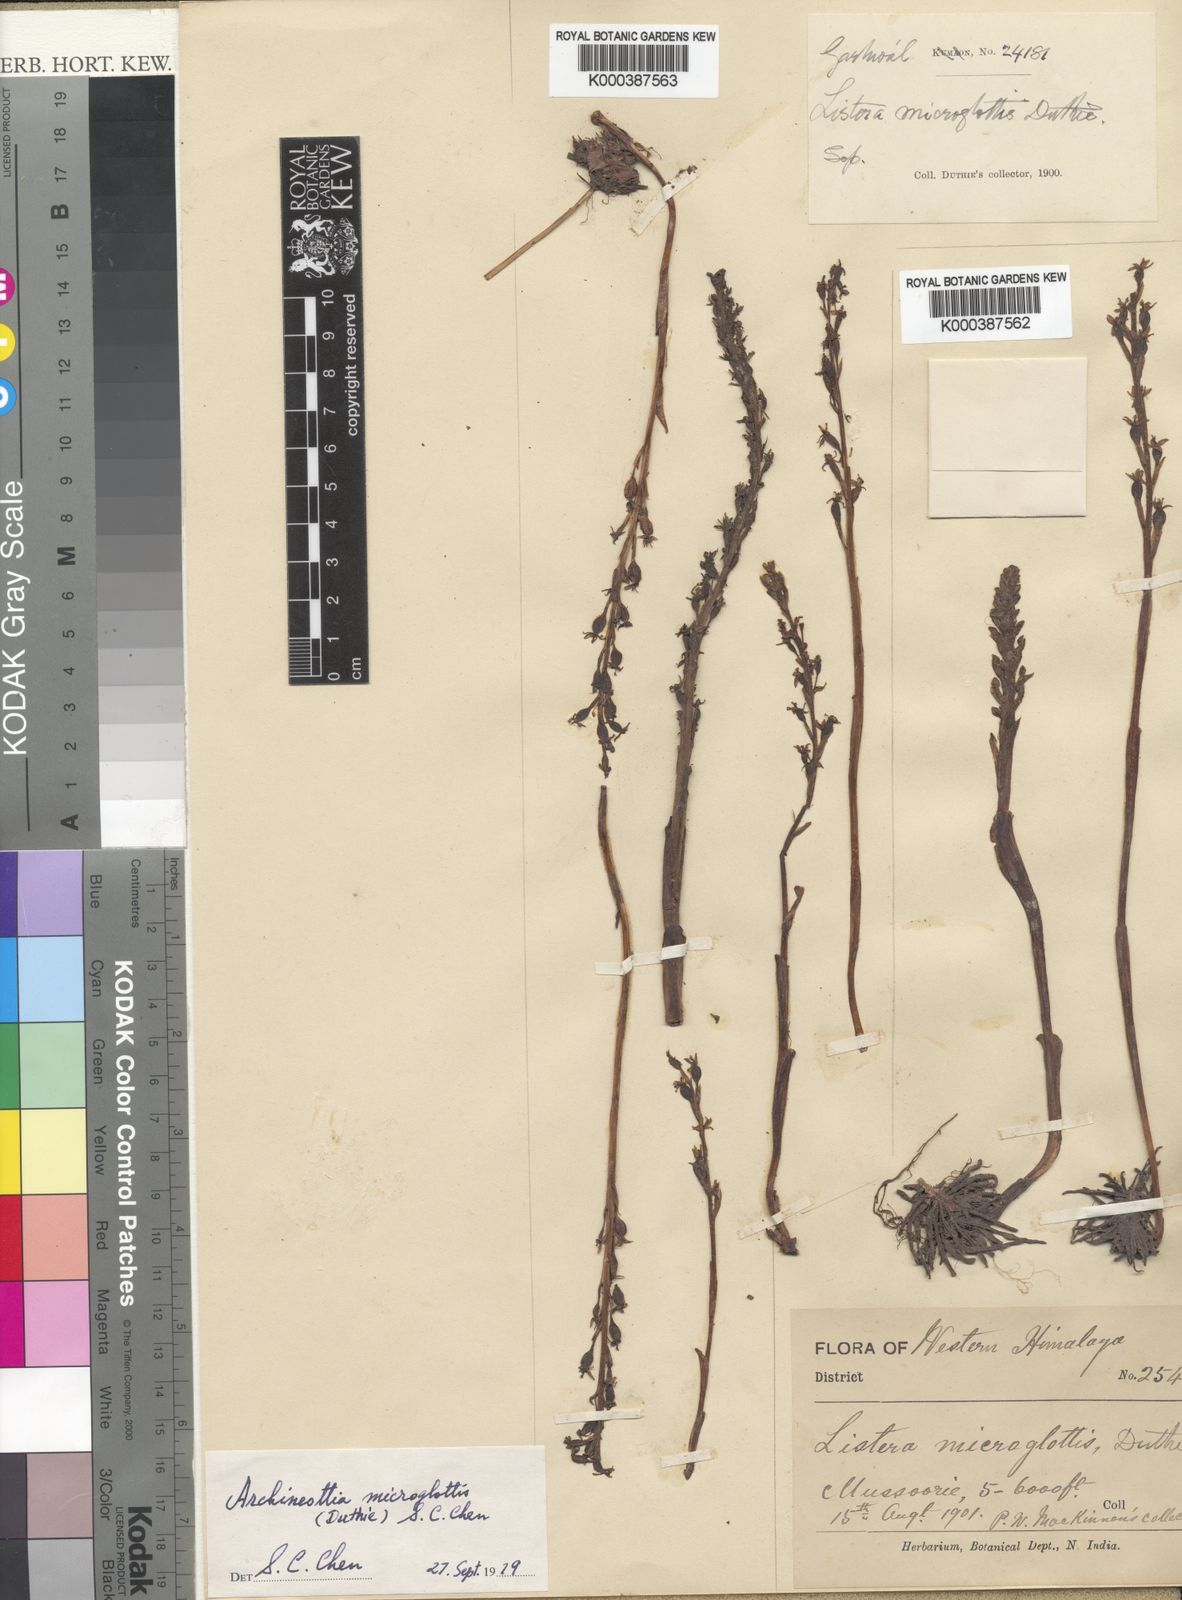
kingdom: Plantae
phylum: Tracheophyta
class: Liliopsida
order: Asparagales
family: Orchidaceae
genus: Neottia
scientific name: Neottia microglottis
